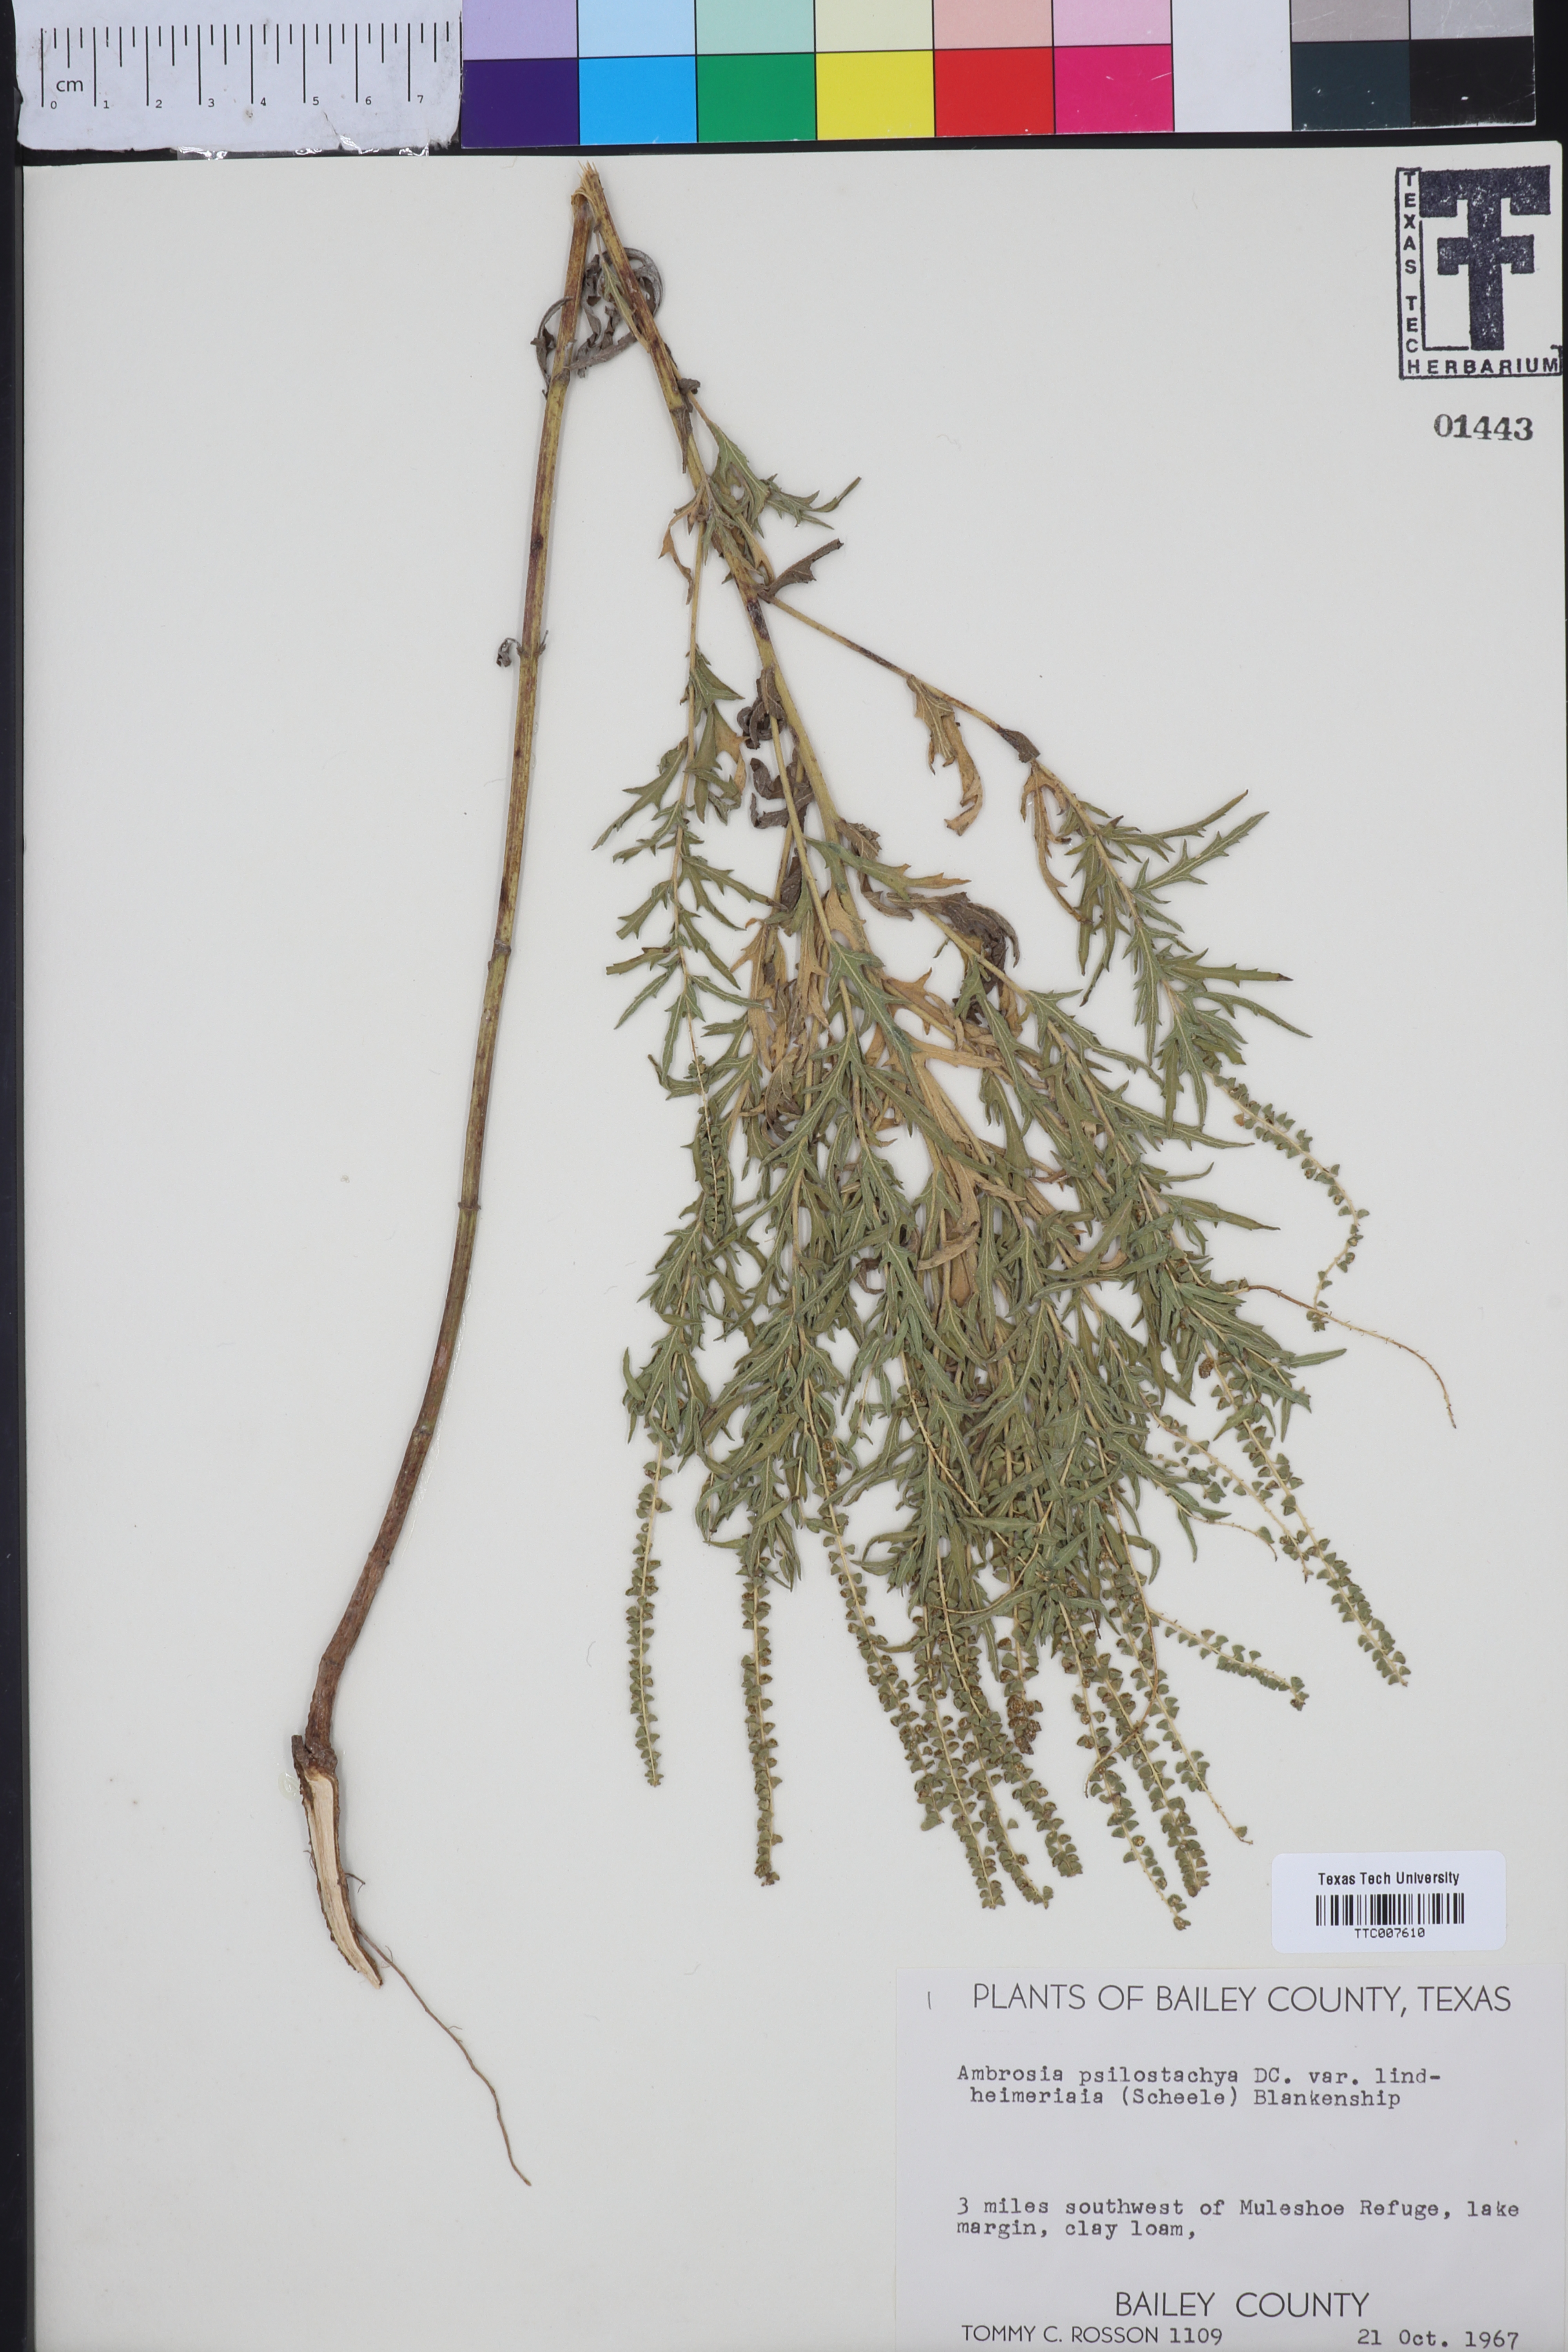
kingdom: Plantae
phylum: Tracheophyta
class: Magnoliopsida
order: Asterales
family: Asteraceae
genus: Ambrosia
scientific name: Ambrosia psilostachya
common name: Perennial ragweed
